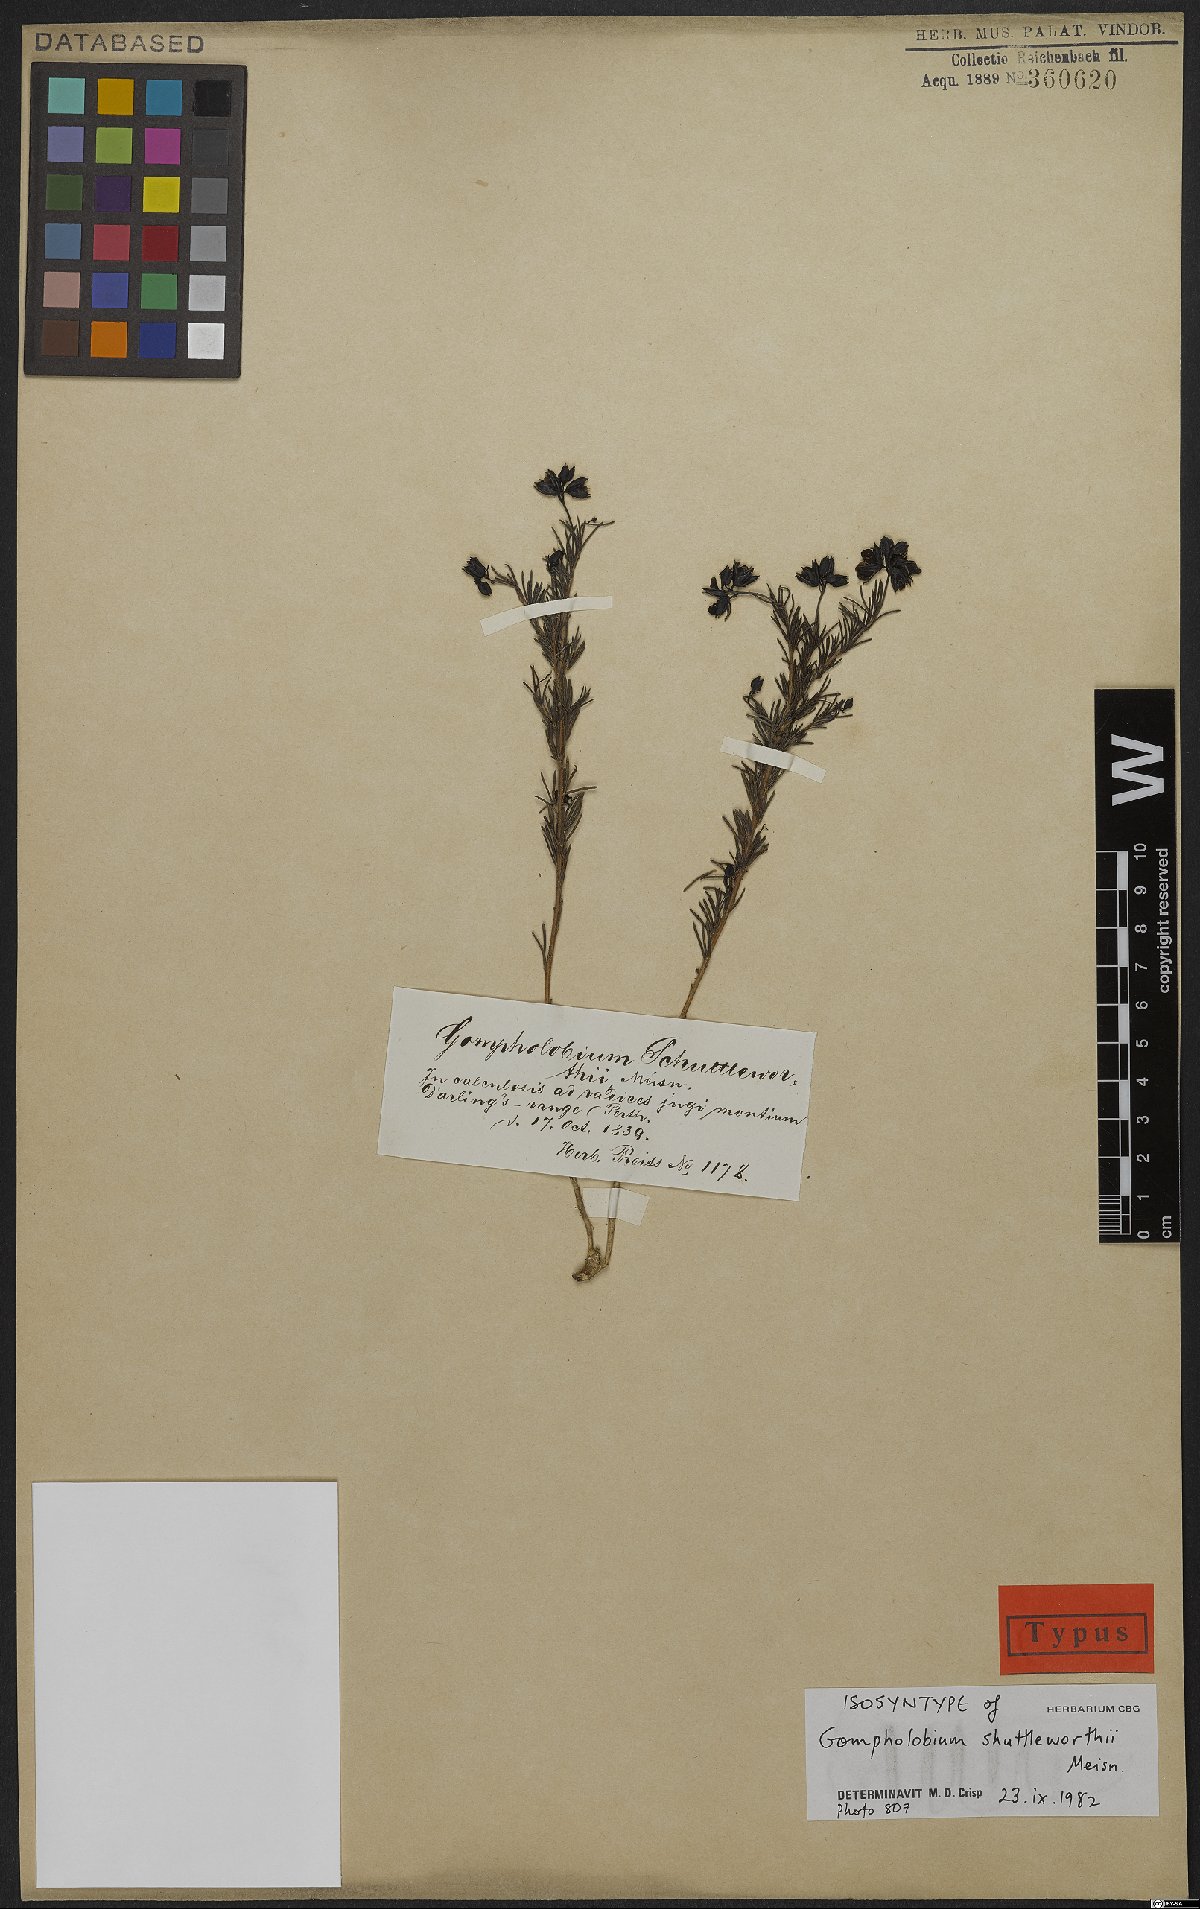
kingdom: Plantae
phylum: Tracheophyta
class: Magnoliopsida
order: Fabales
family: Fabaceae
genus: Gompholobium
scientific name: Gompholobium shuttleworthii
